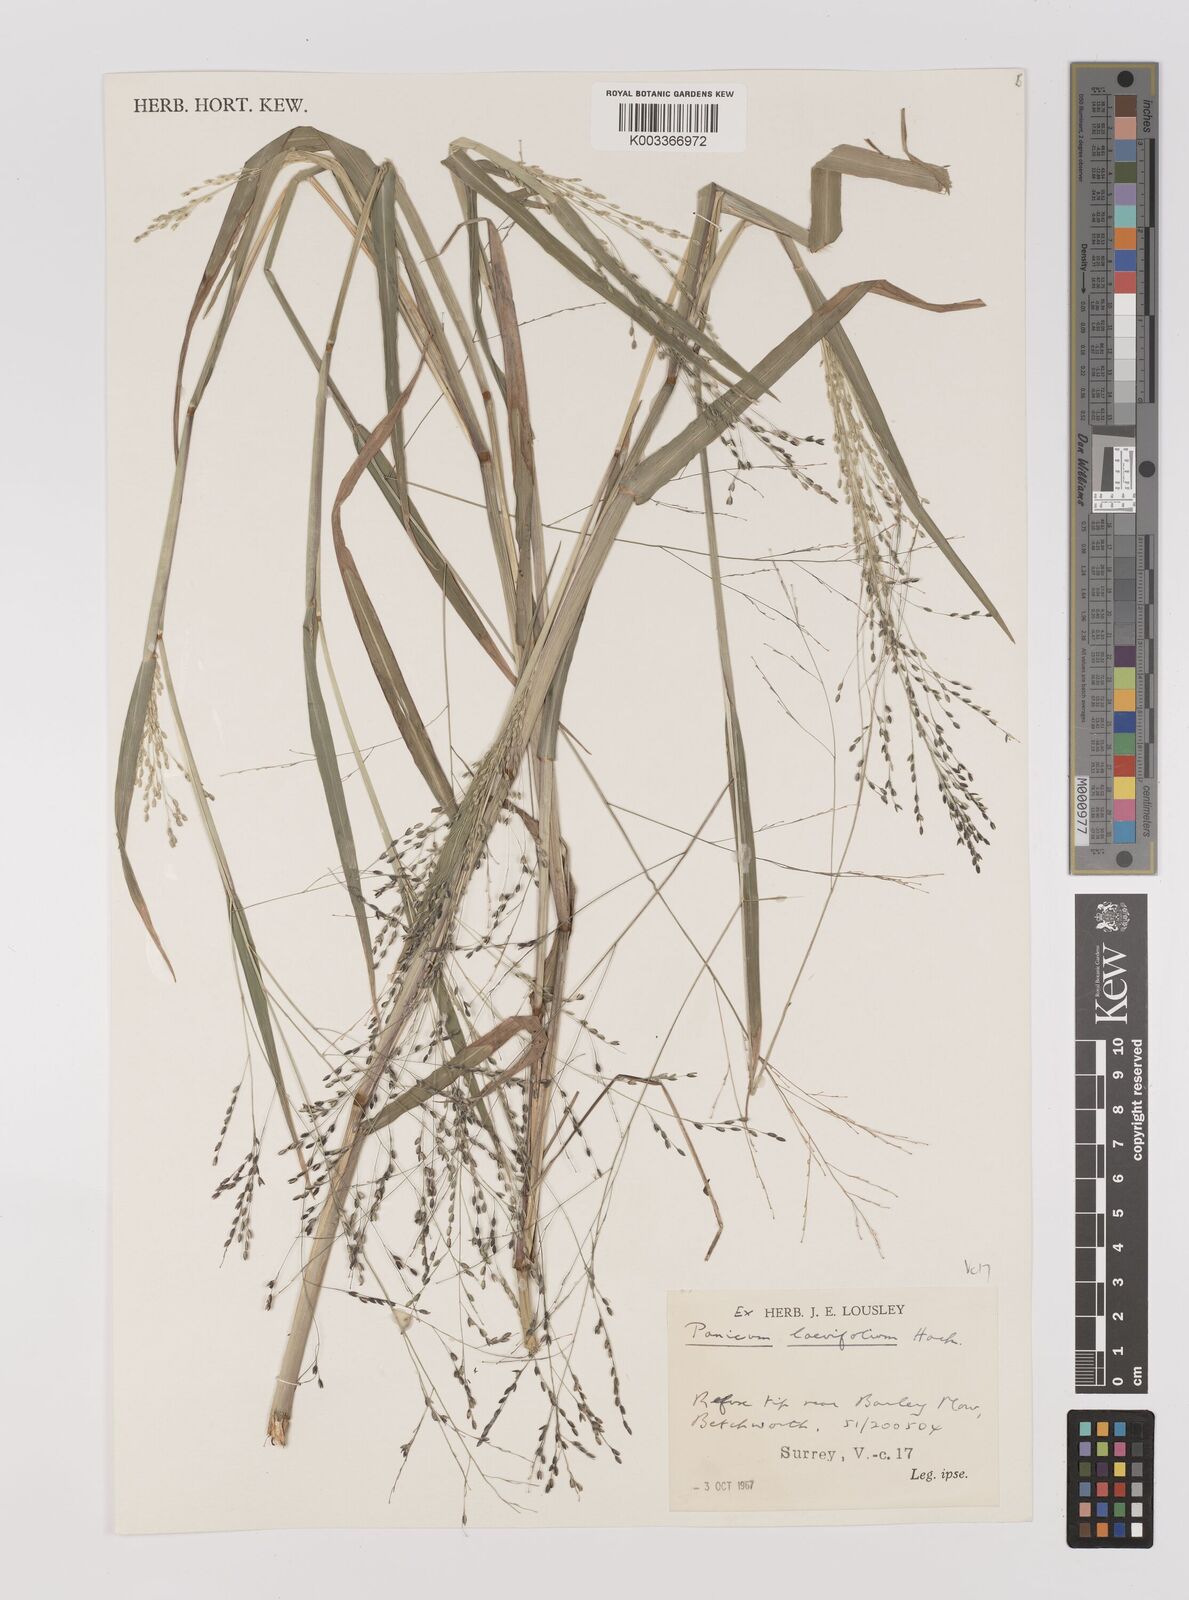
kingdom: Plantae
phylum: Tracheophyta
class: Liliopsida
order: Poales
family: Poaceae
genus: Panicum
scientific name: Panicum schinzii
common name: Sweet grass
